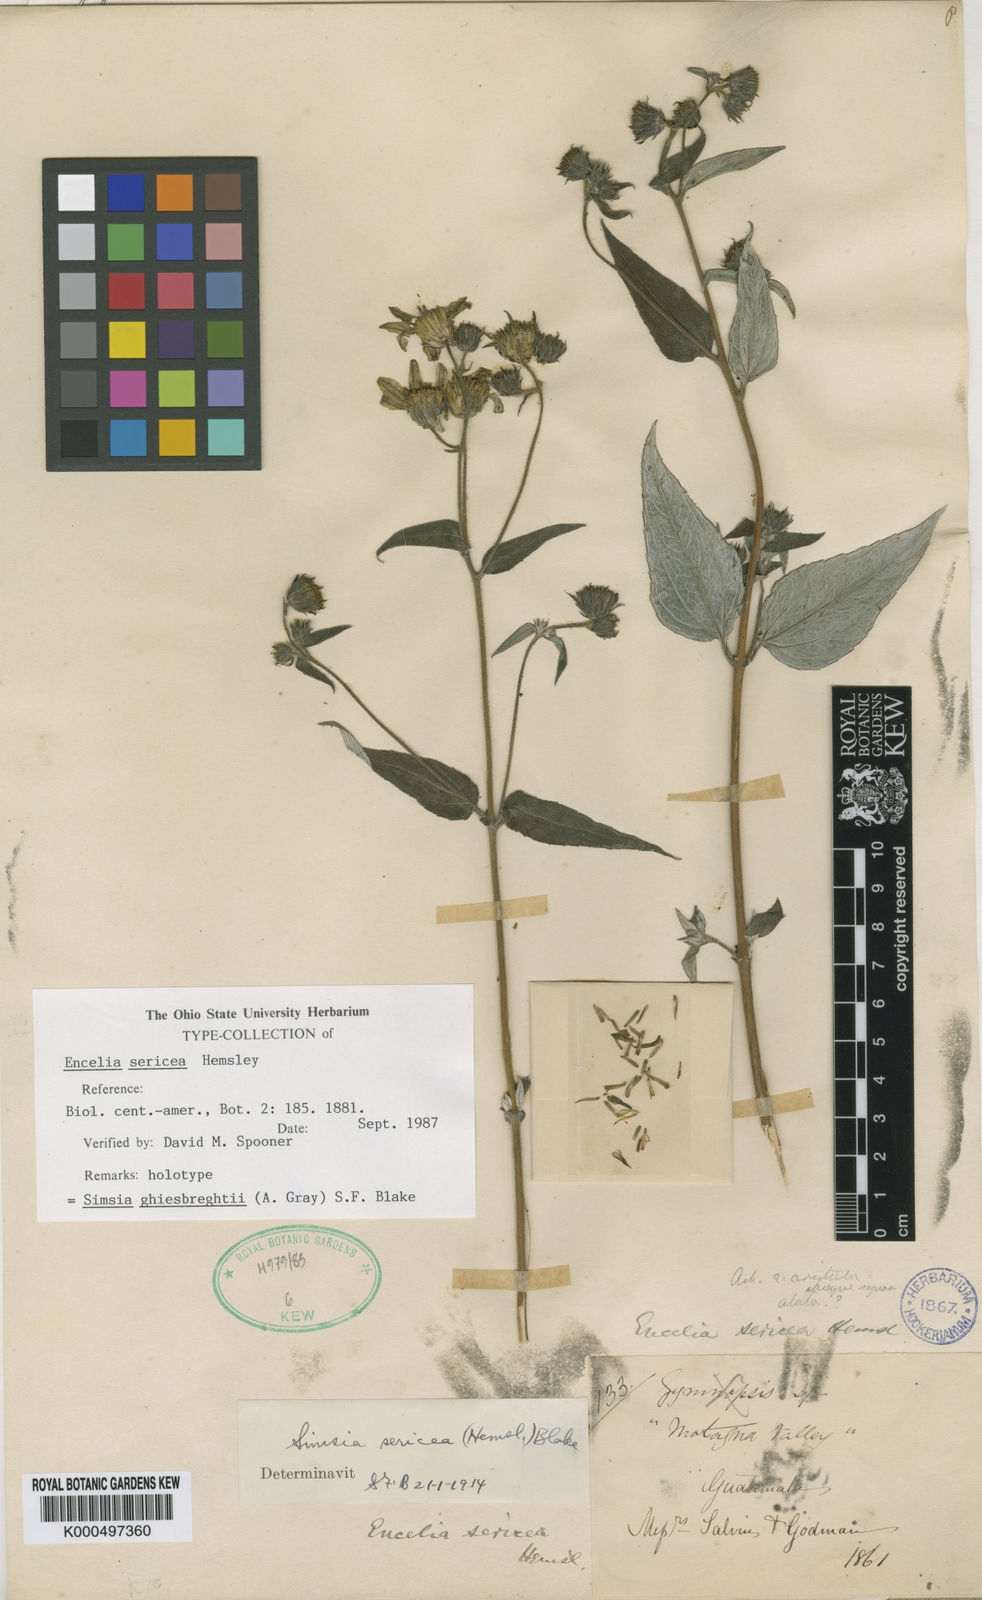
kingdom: Plantae
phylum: Tracheophyta
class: Magnoliopsida
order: Asterales
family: Asteraceae
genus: Simsia
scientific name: Simsia ghiesbreghtii
